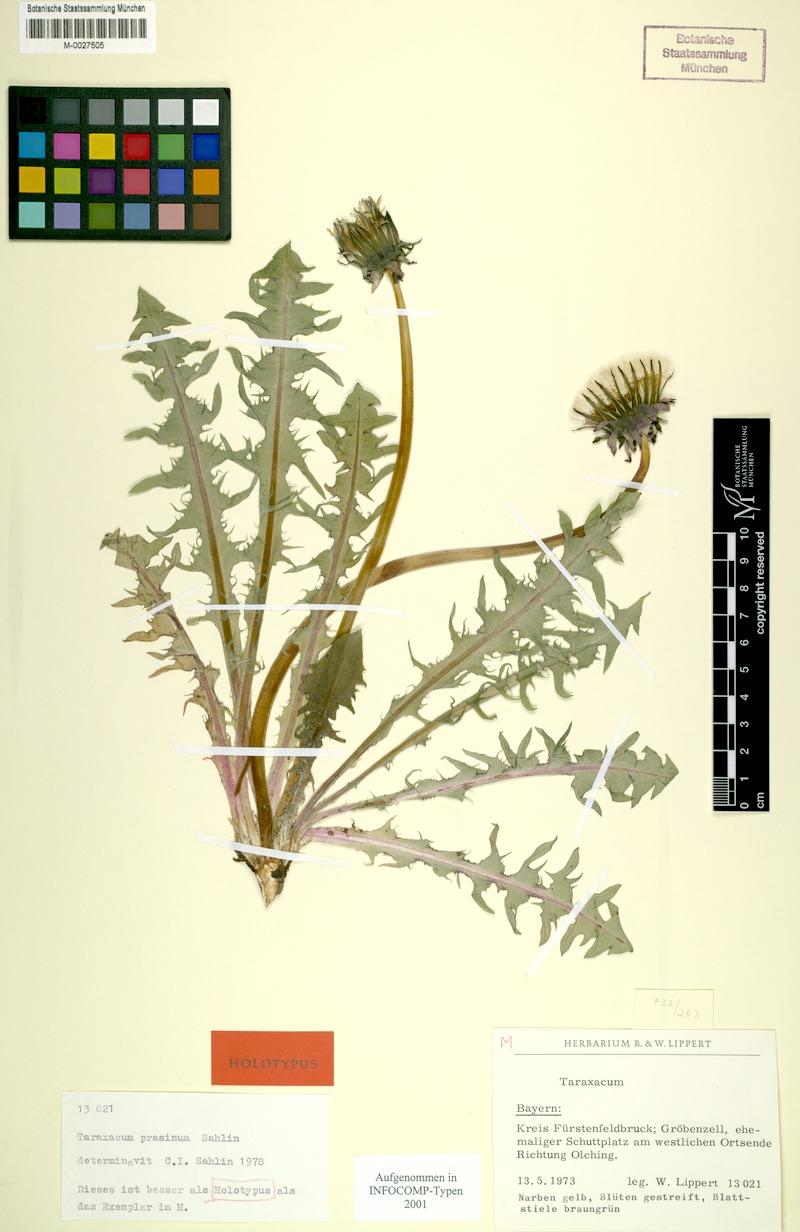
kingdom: Plantae
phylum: Tracheophyta
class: Magnoliopsida
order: Asterales
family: Asteraceae
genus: Taraxacum
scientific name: Taraxacum prasinum
